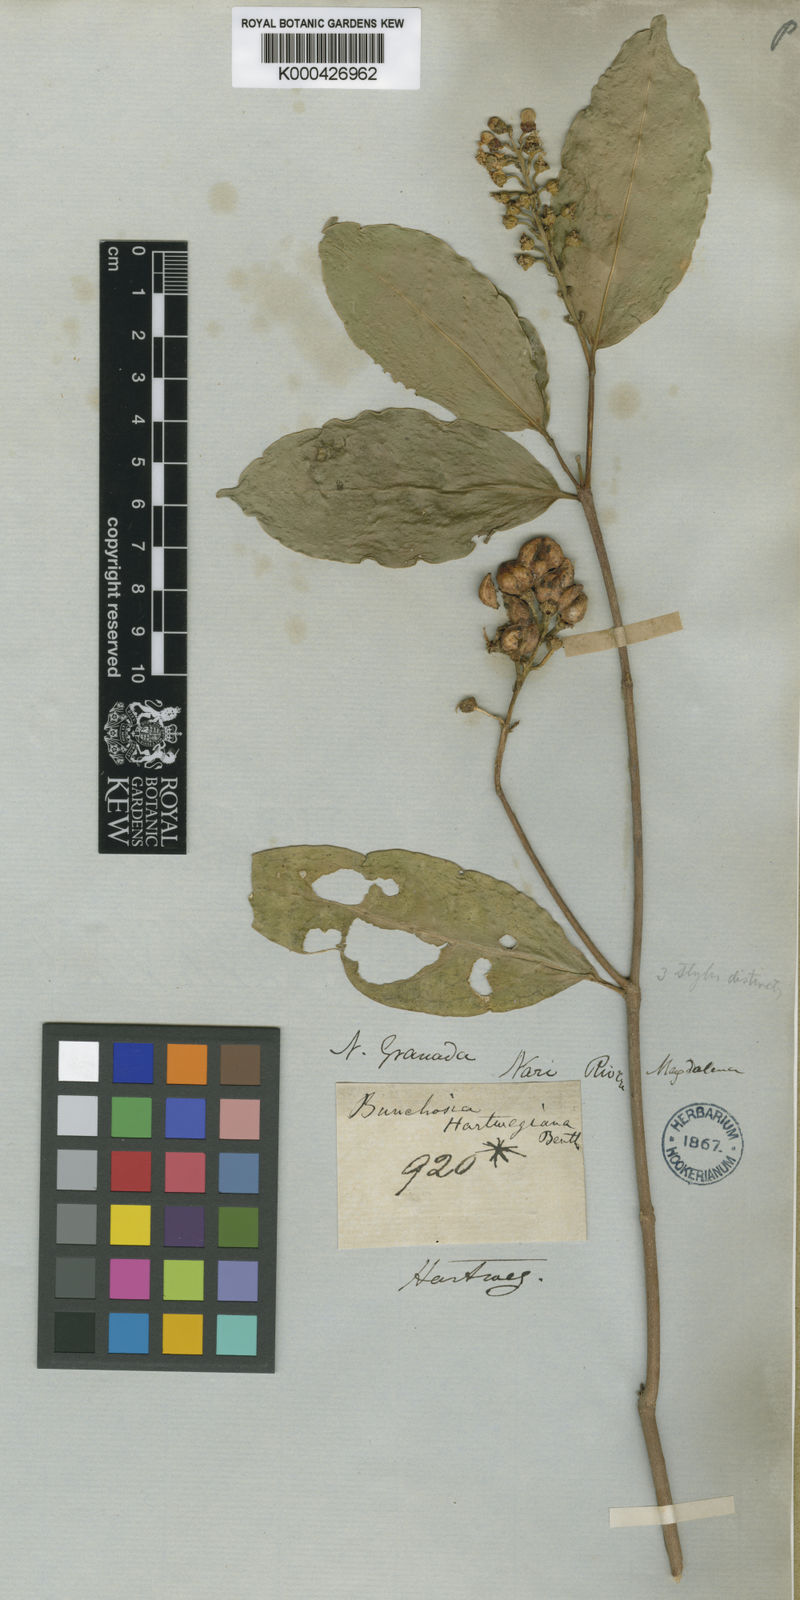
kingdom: Plantae
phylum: Tracheophyta
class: Magnoliopsida
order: Malpighiales
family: Malpighiaceae
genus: Bunchosia
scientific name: Bunchosia hartwegiana
